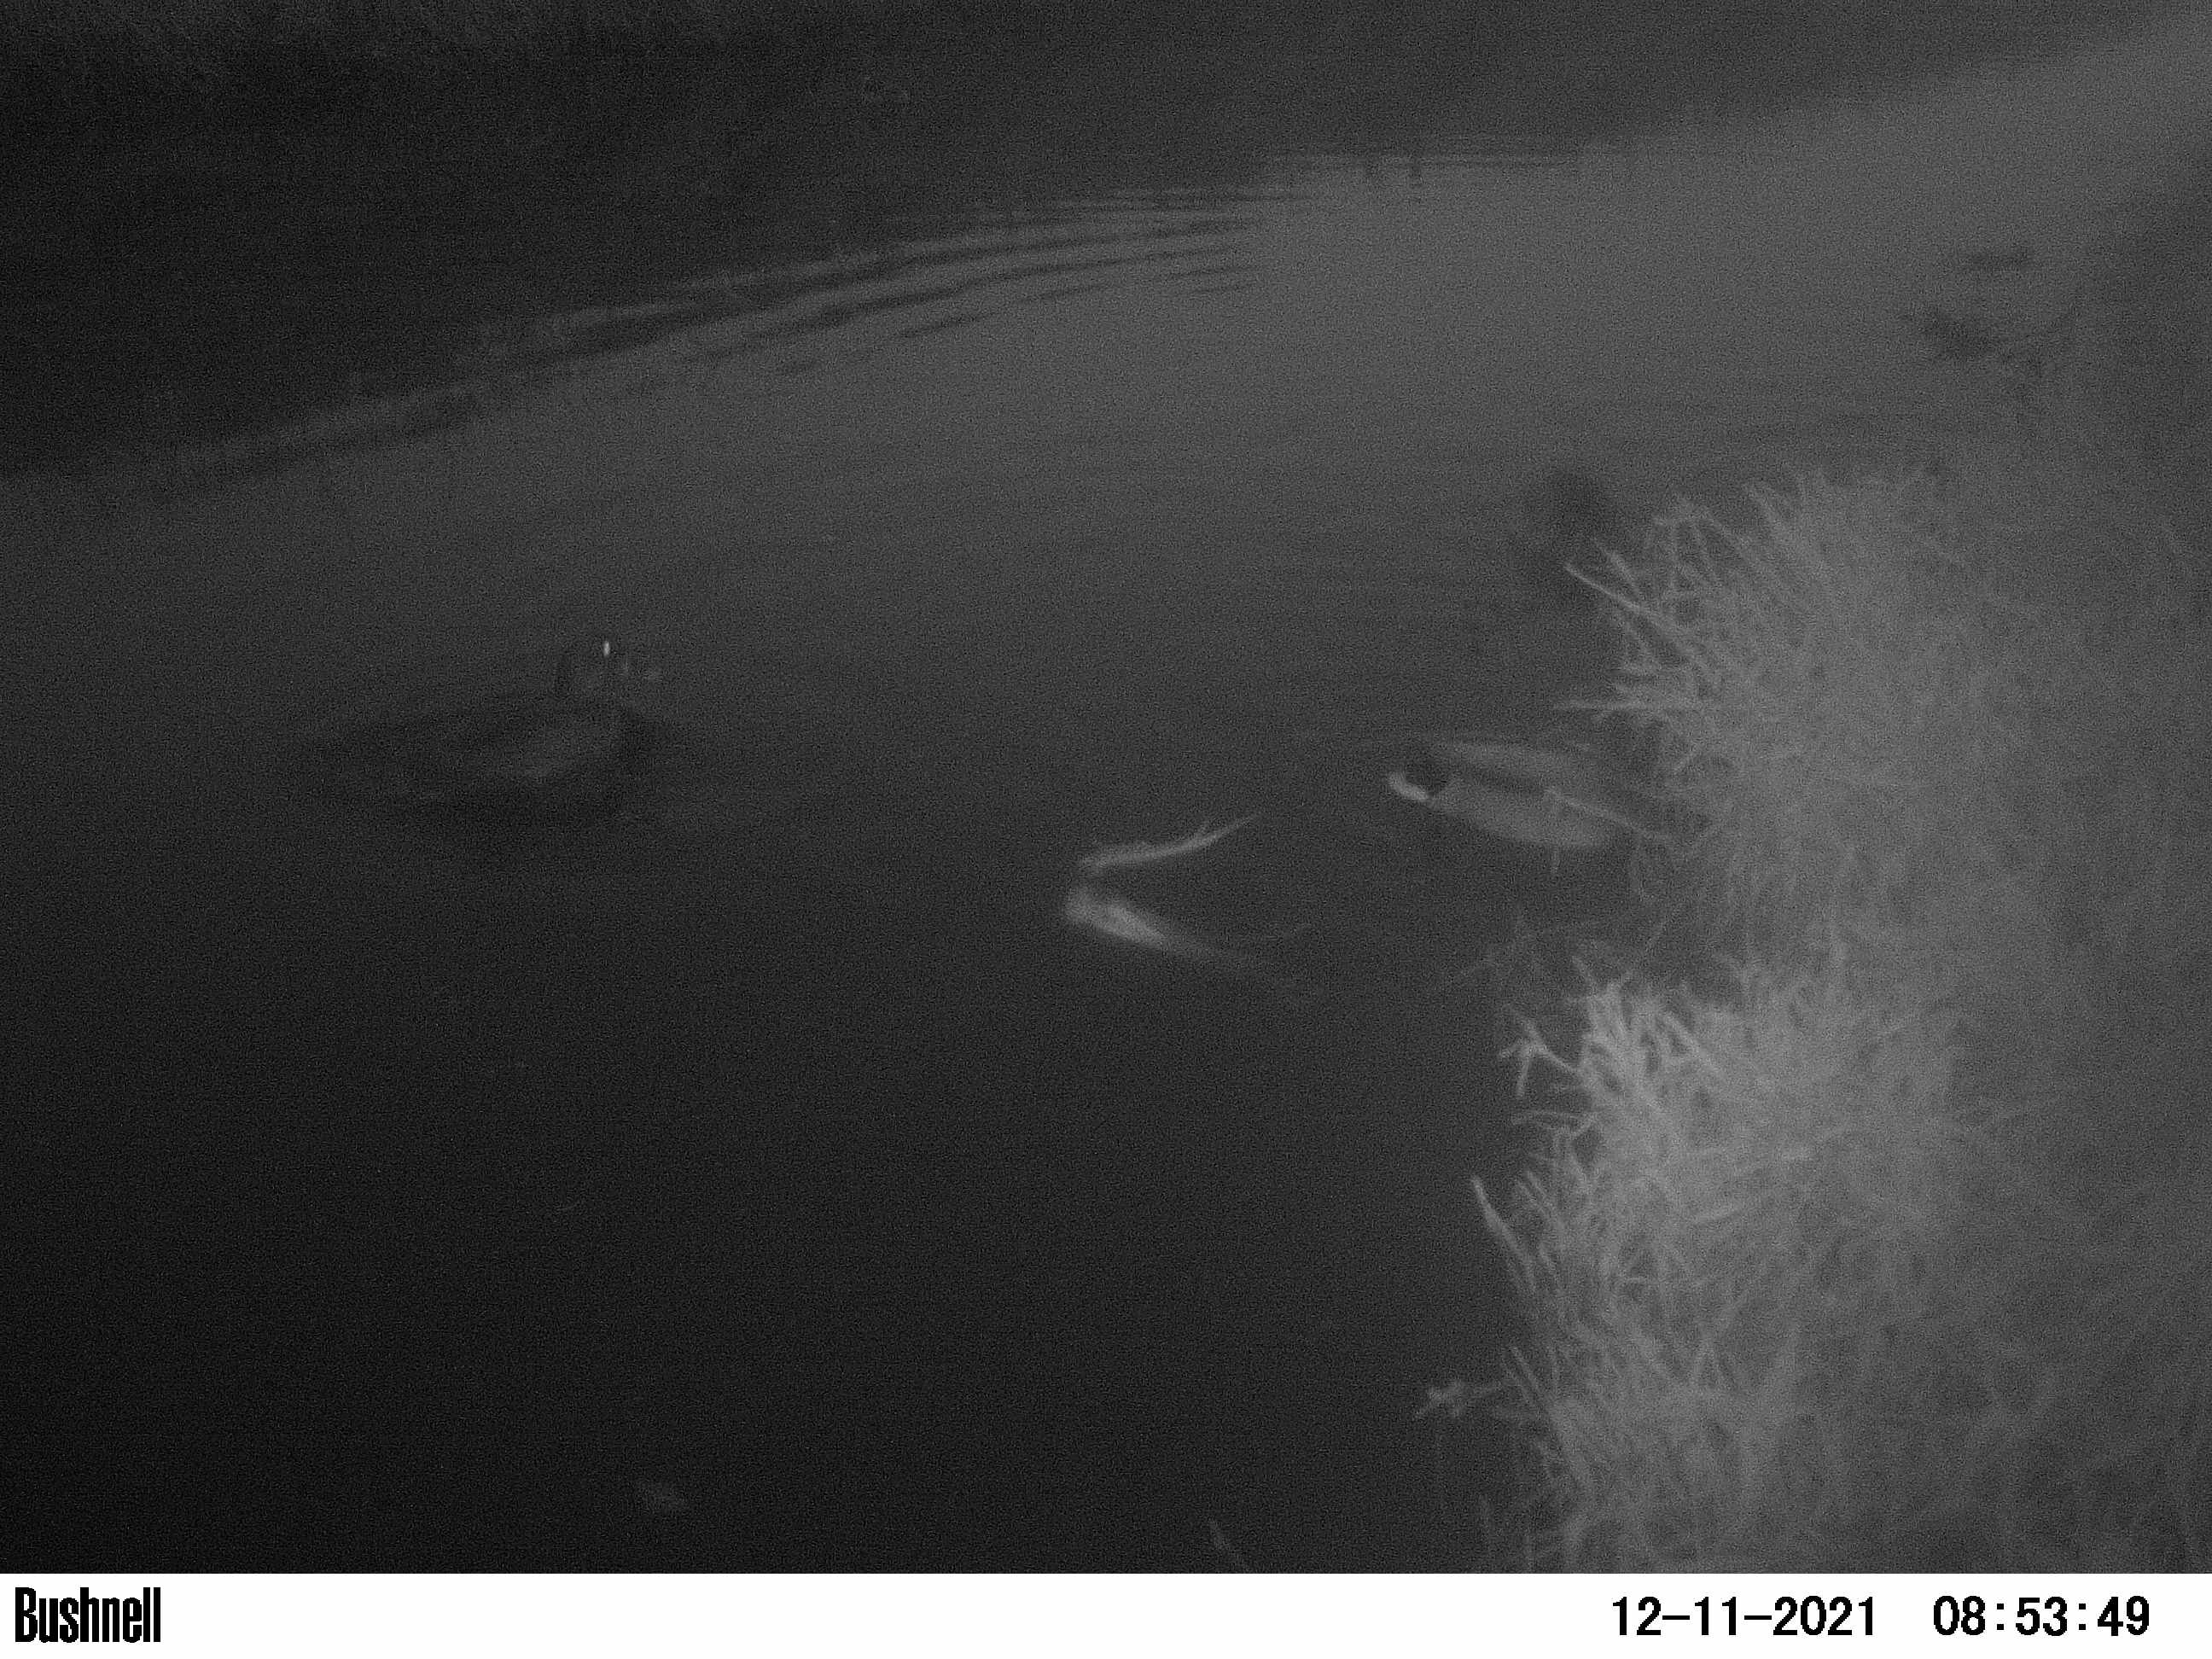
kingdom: Animalia
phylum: Chordata
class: Aves
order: Anseriformes
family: Anatidae
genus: Anas
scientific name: Anas
